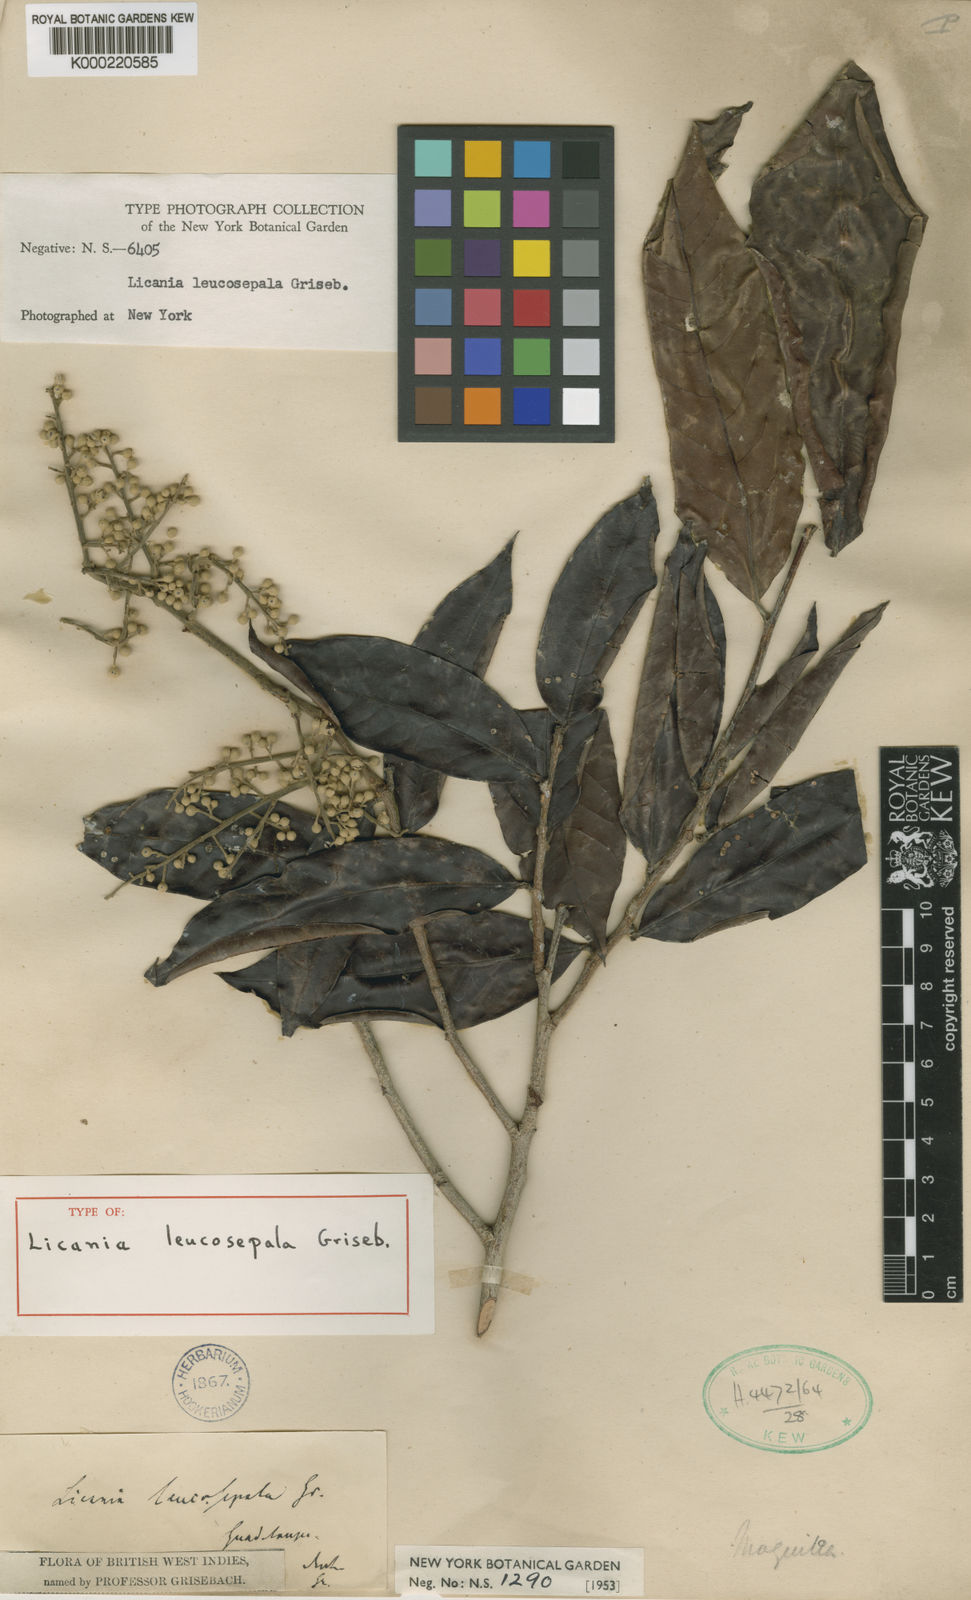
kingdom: Plantae
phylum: Tracheophyta
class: Magnoliopsida
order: Malpighiales
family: Chrysobalanaceae
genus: Moquilea
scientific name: Moquilea leucosepala
